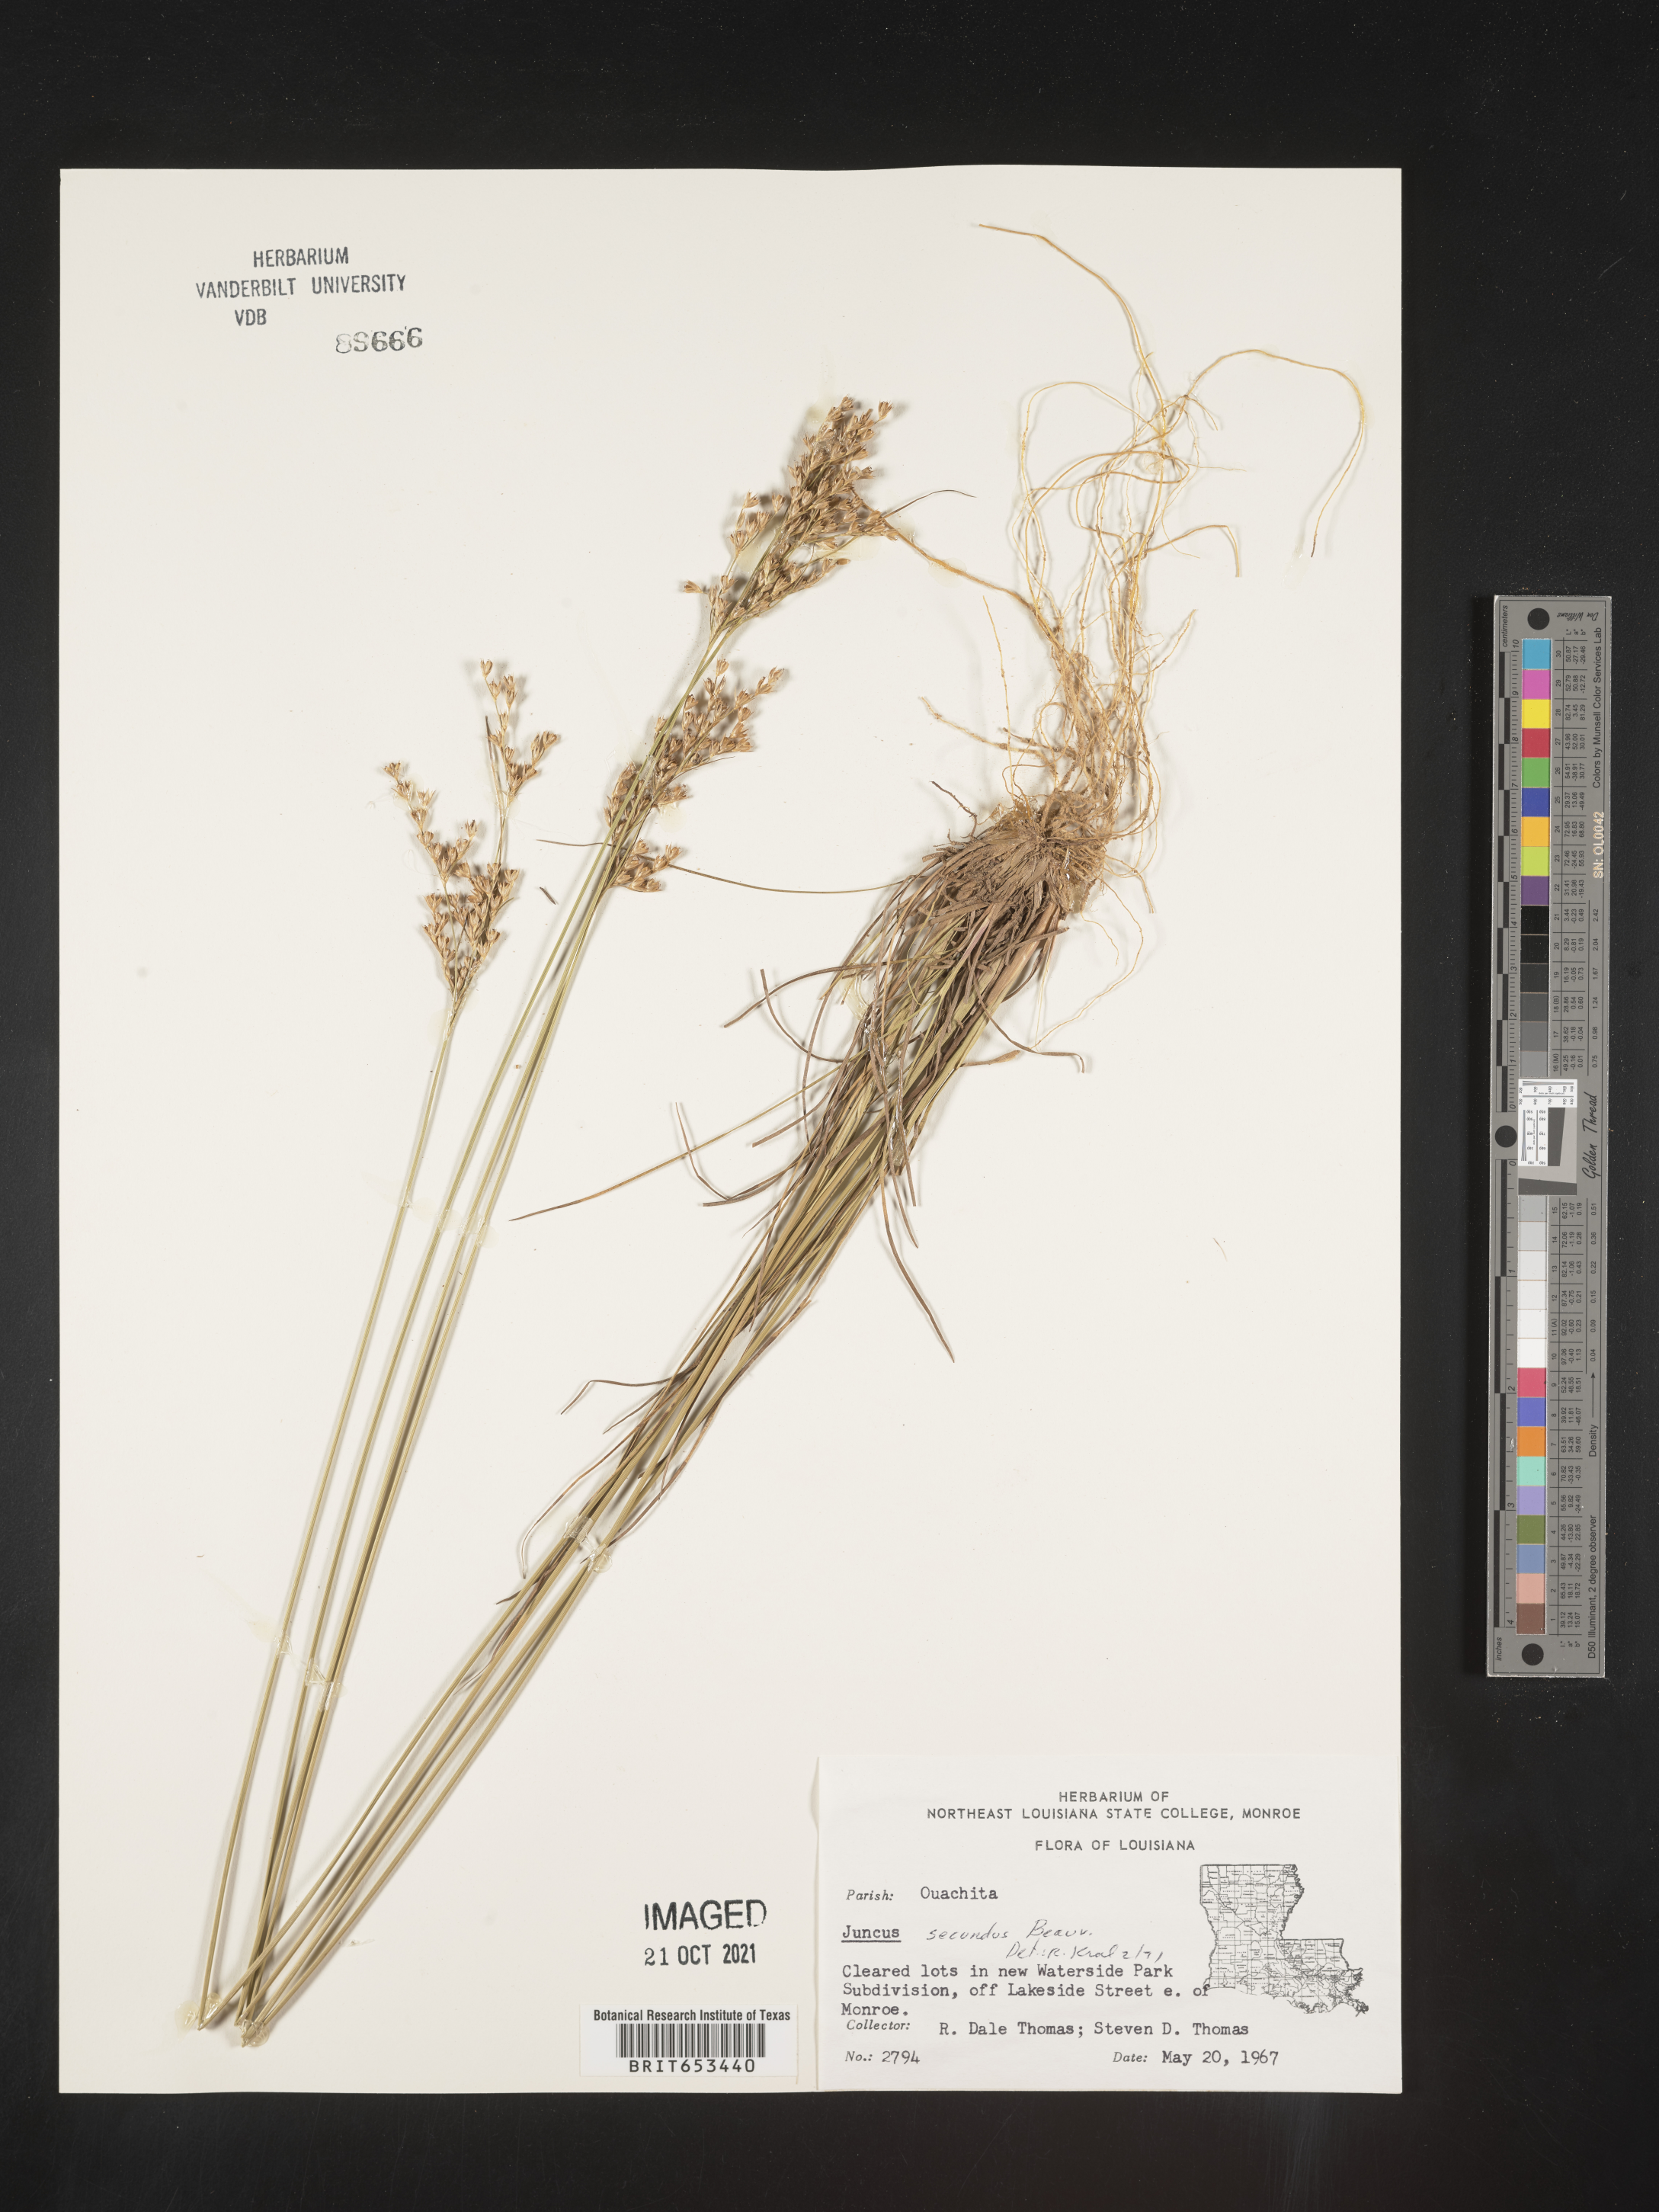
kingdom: Plantae
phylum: Tracheophyta
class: Liliopsida
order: Poales
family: Juncaceae
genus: Juncus
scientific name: Juncus secundus
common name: Lopsided rush
